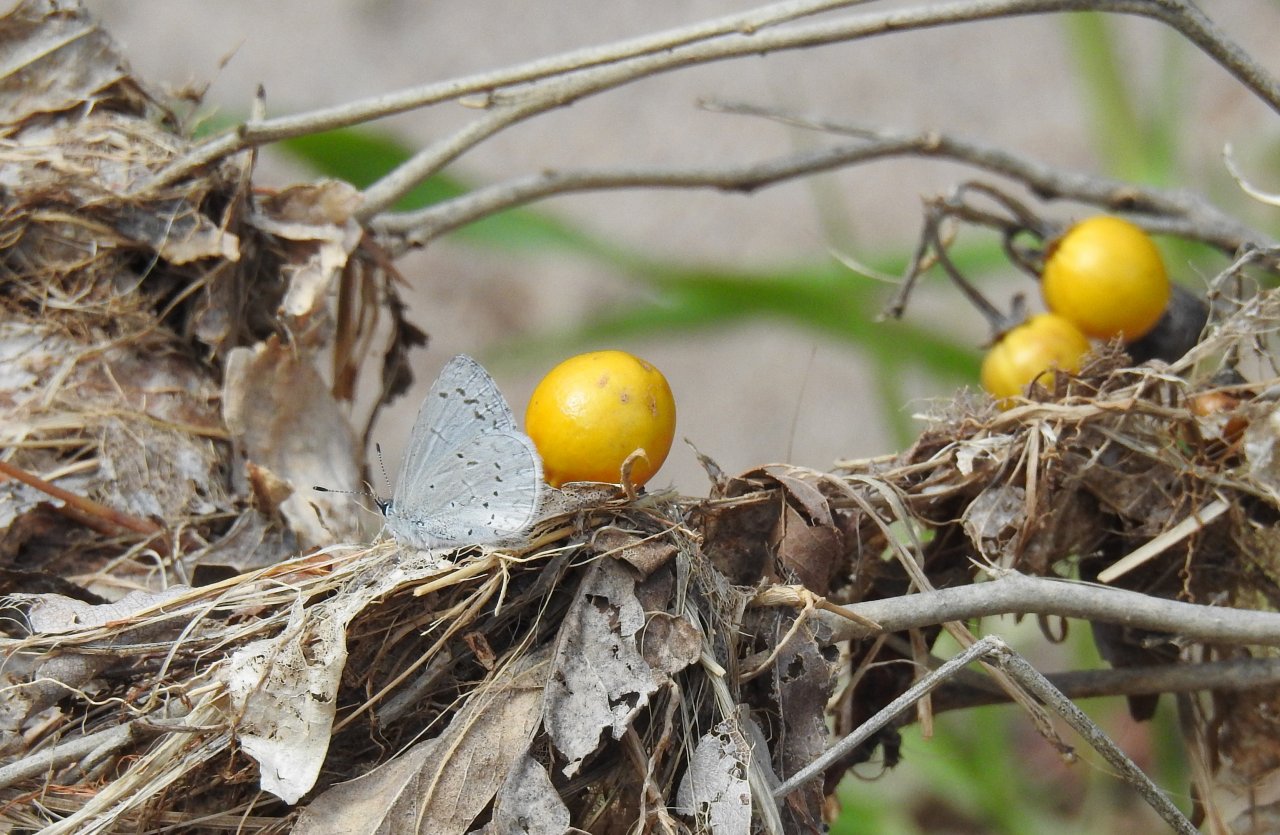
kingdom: Animalia
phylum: Arthropoda
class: Insecta
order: Lepidoptera
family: Lycaenidae
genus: Celastrina
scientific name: Celastrina ladon
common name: Spring Azure
